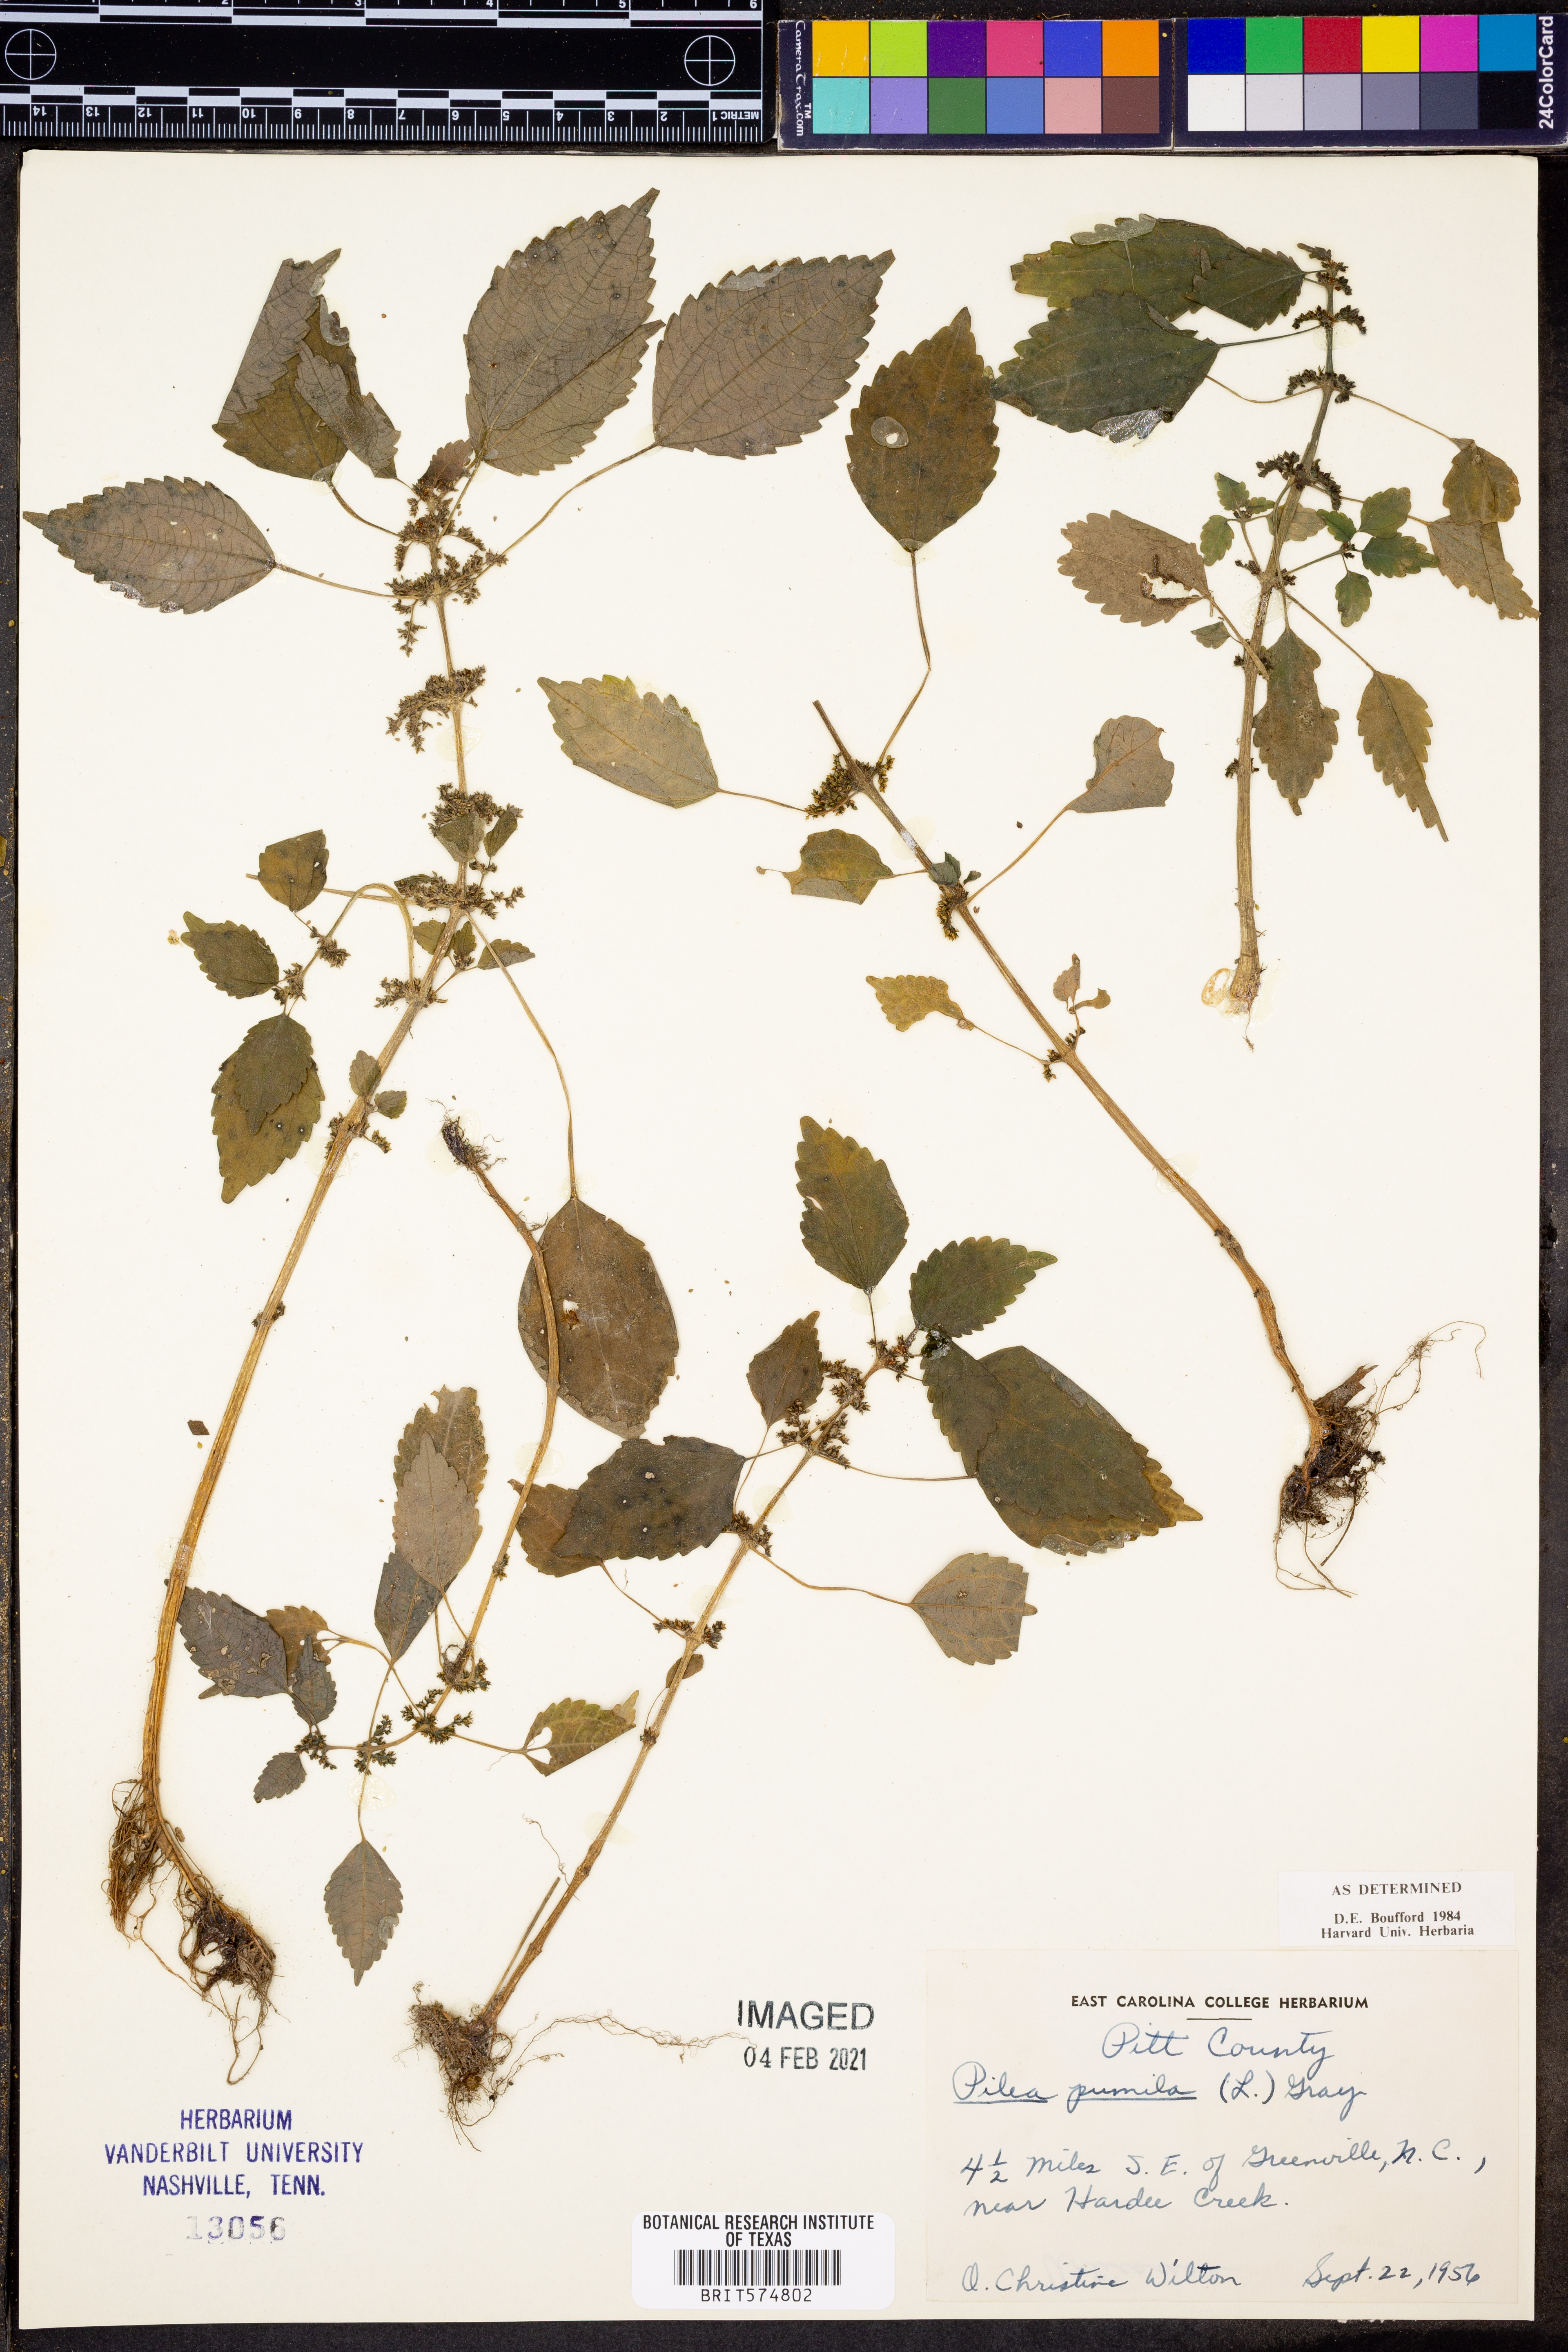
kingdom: Plantae
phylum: Tracheophyta
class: Magnoliopsida
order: Rosales
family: Urticaceae
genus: Pilea
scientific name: Pilea pumila
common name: Clearweed
